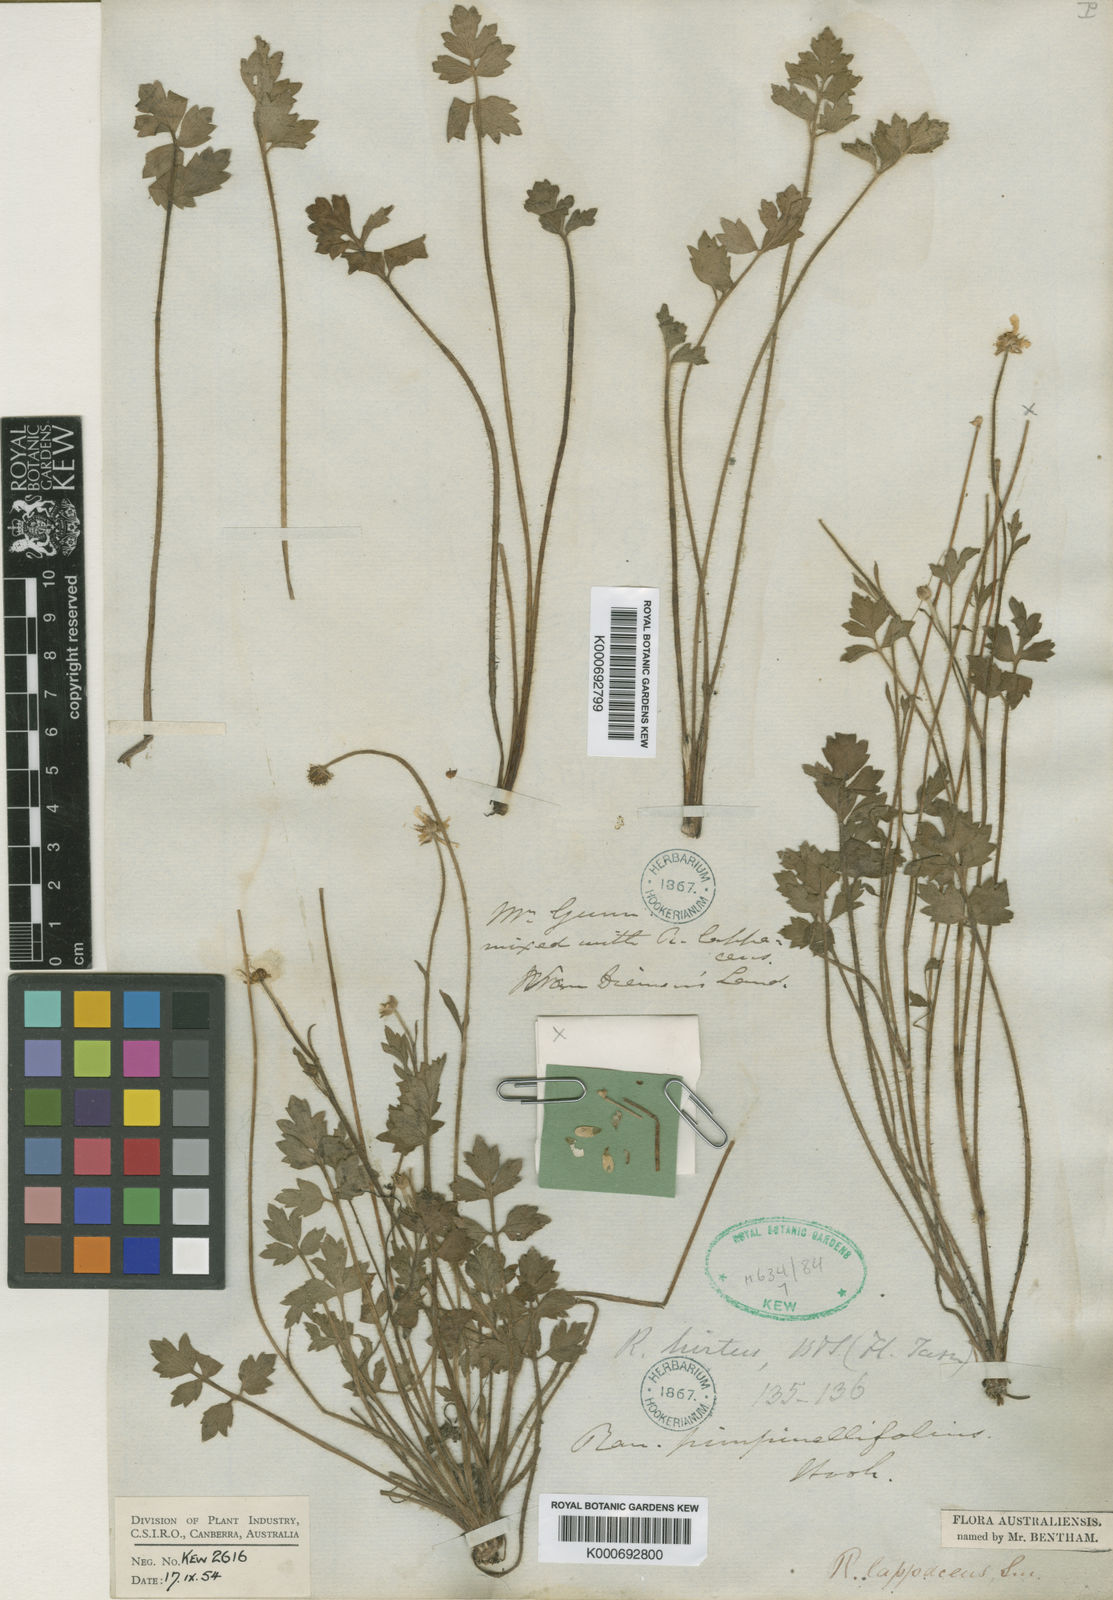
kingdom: Plantae
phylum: Tracheophyta
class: Magnoliopsida
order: Ranunculales
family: Ranunculaceae
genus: Ranunculus
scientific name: Ranunculus pimpinellifolius
